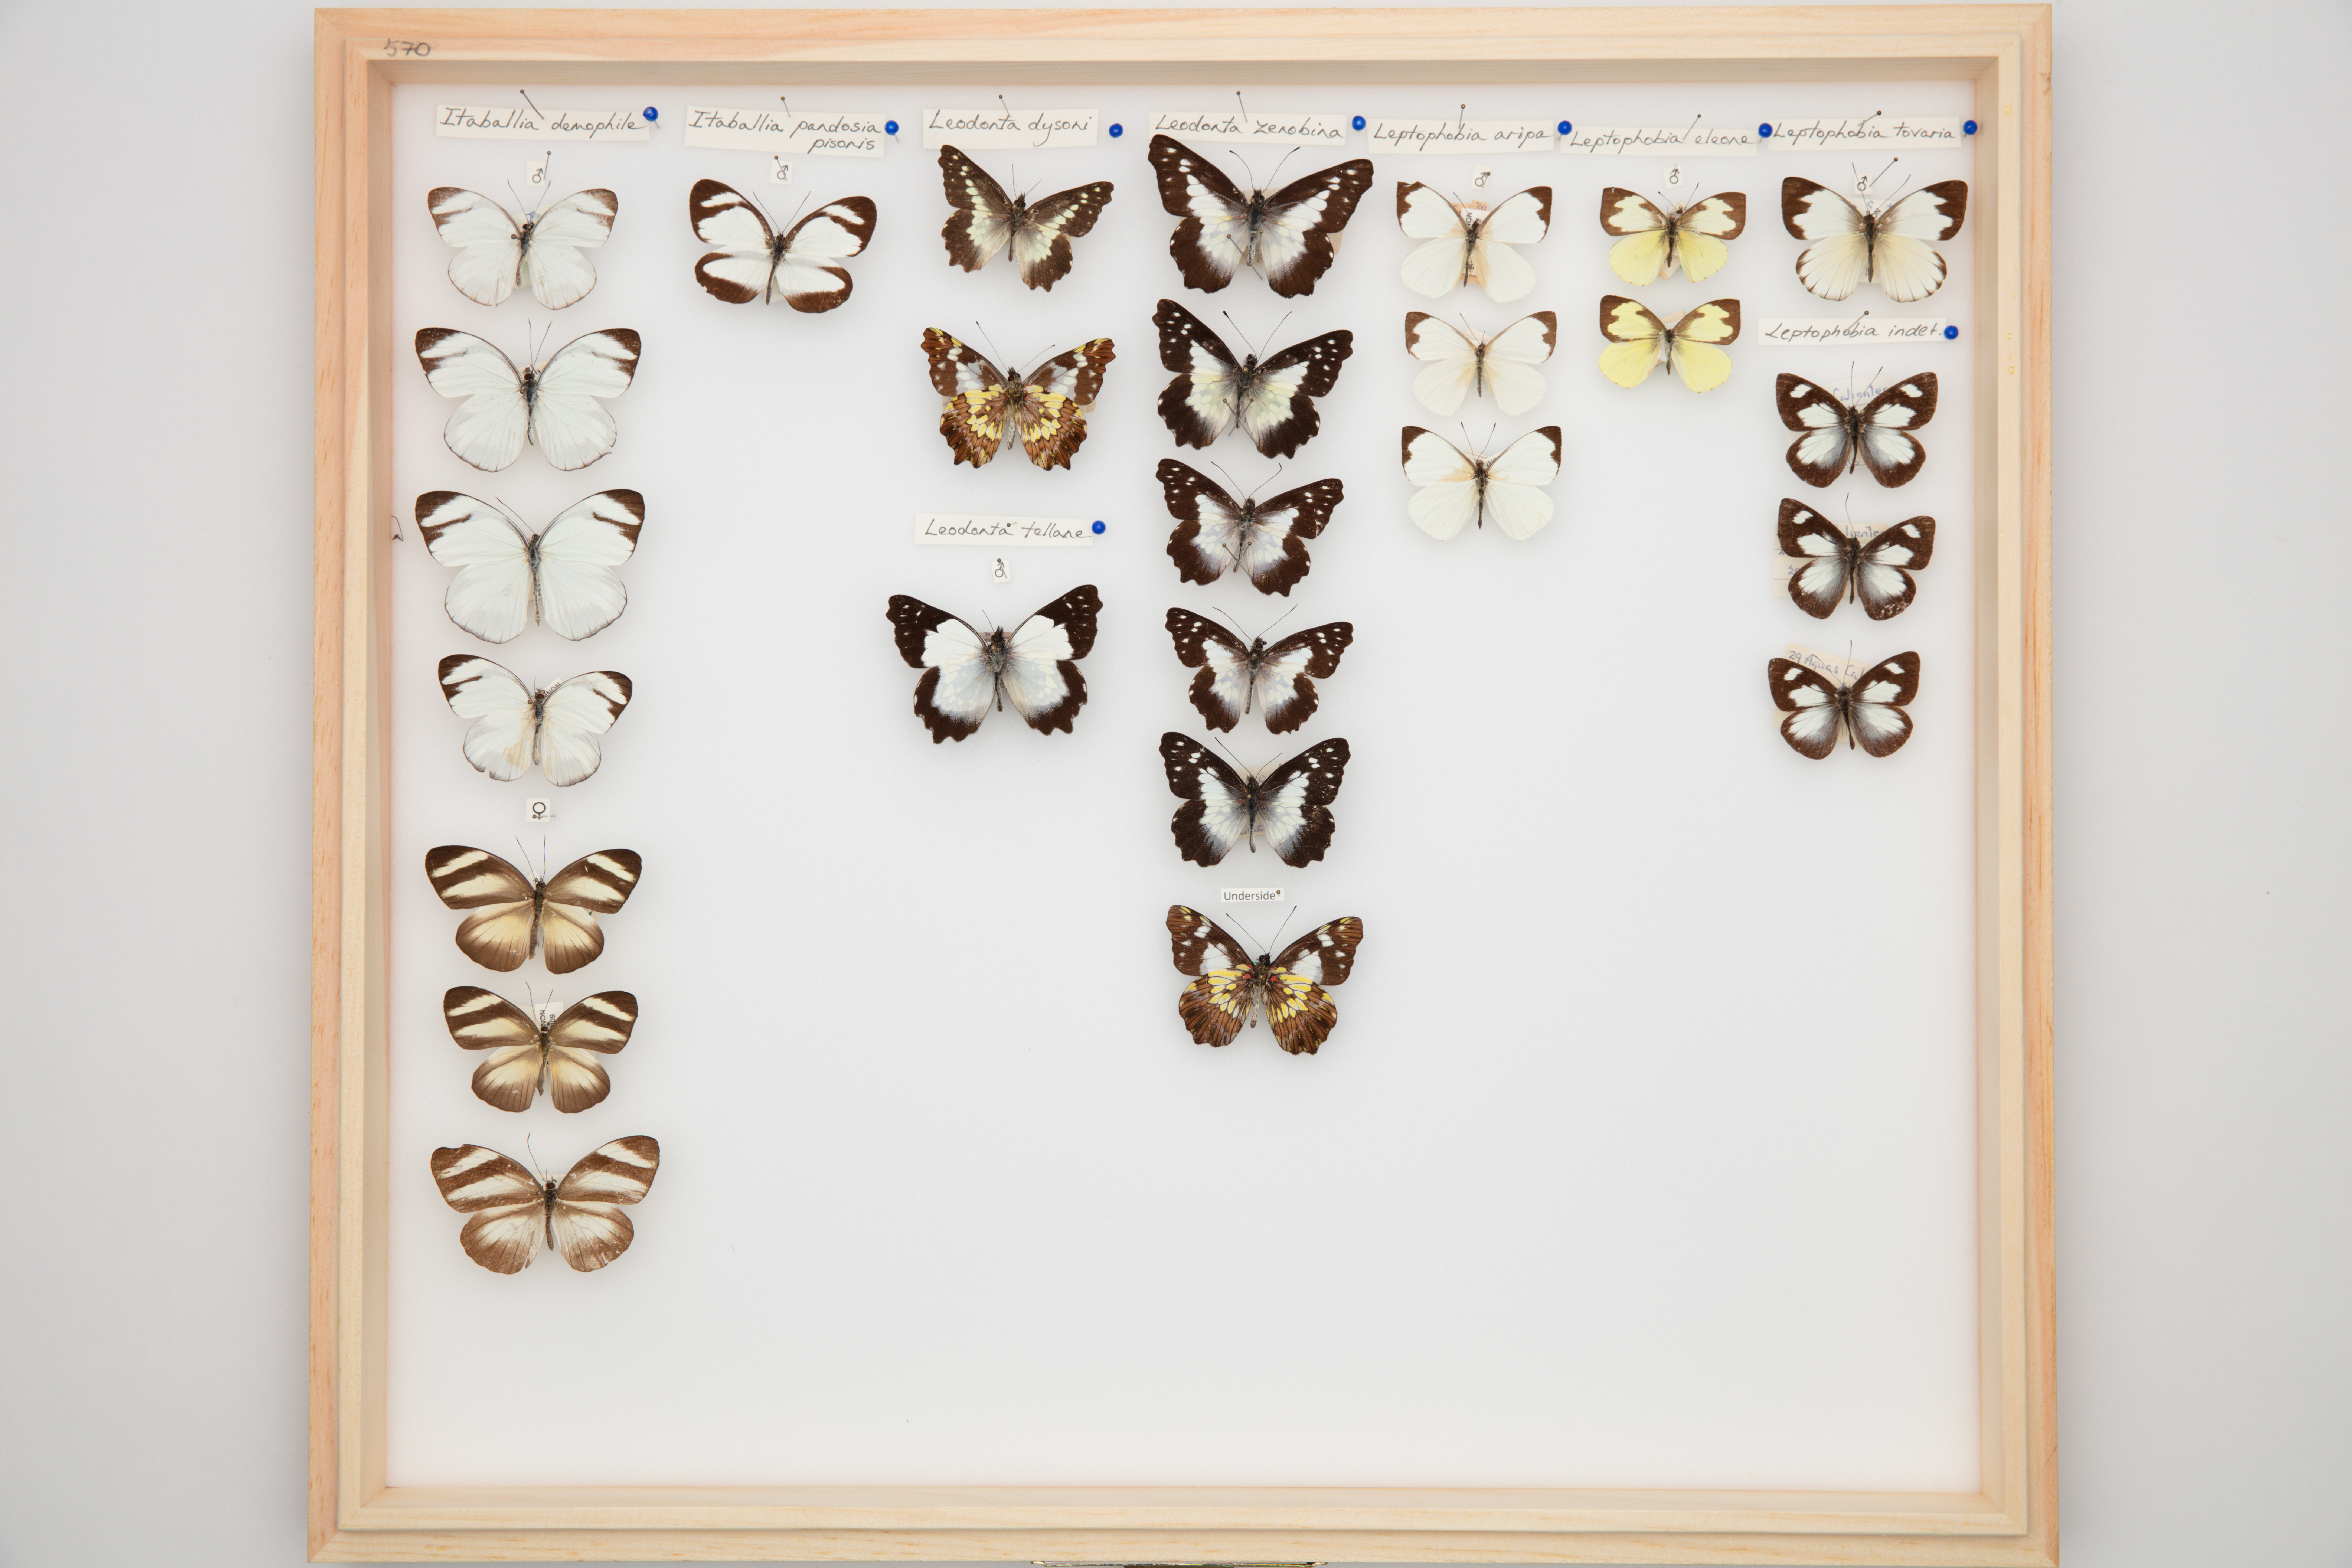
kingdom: Animalia
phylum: Arthropoda
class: Insecta
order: Lepidoptera
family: Pieridae
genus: Leodonta
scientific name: Leodonta zenobia
